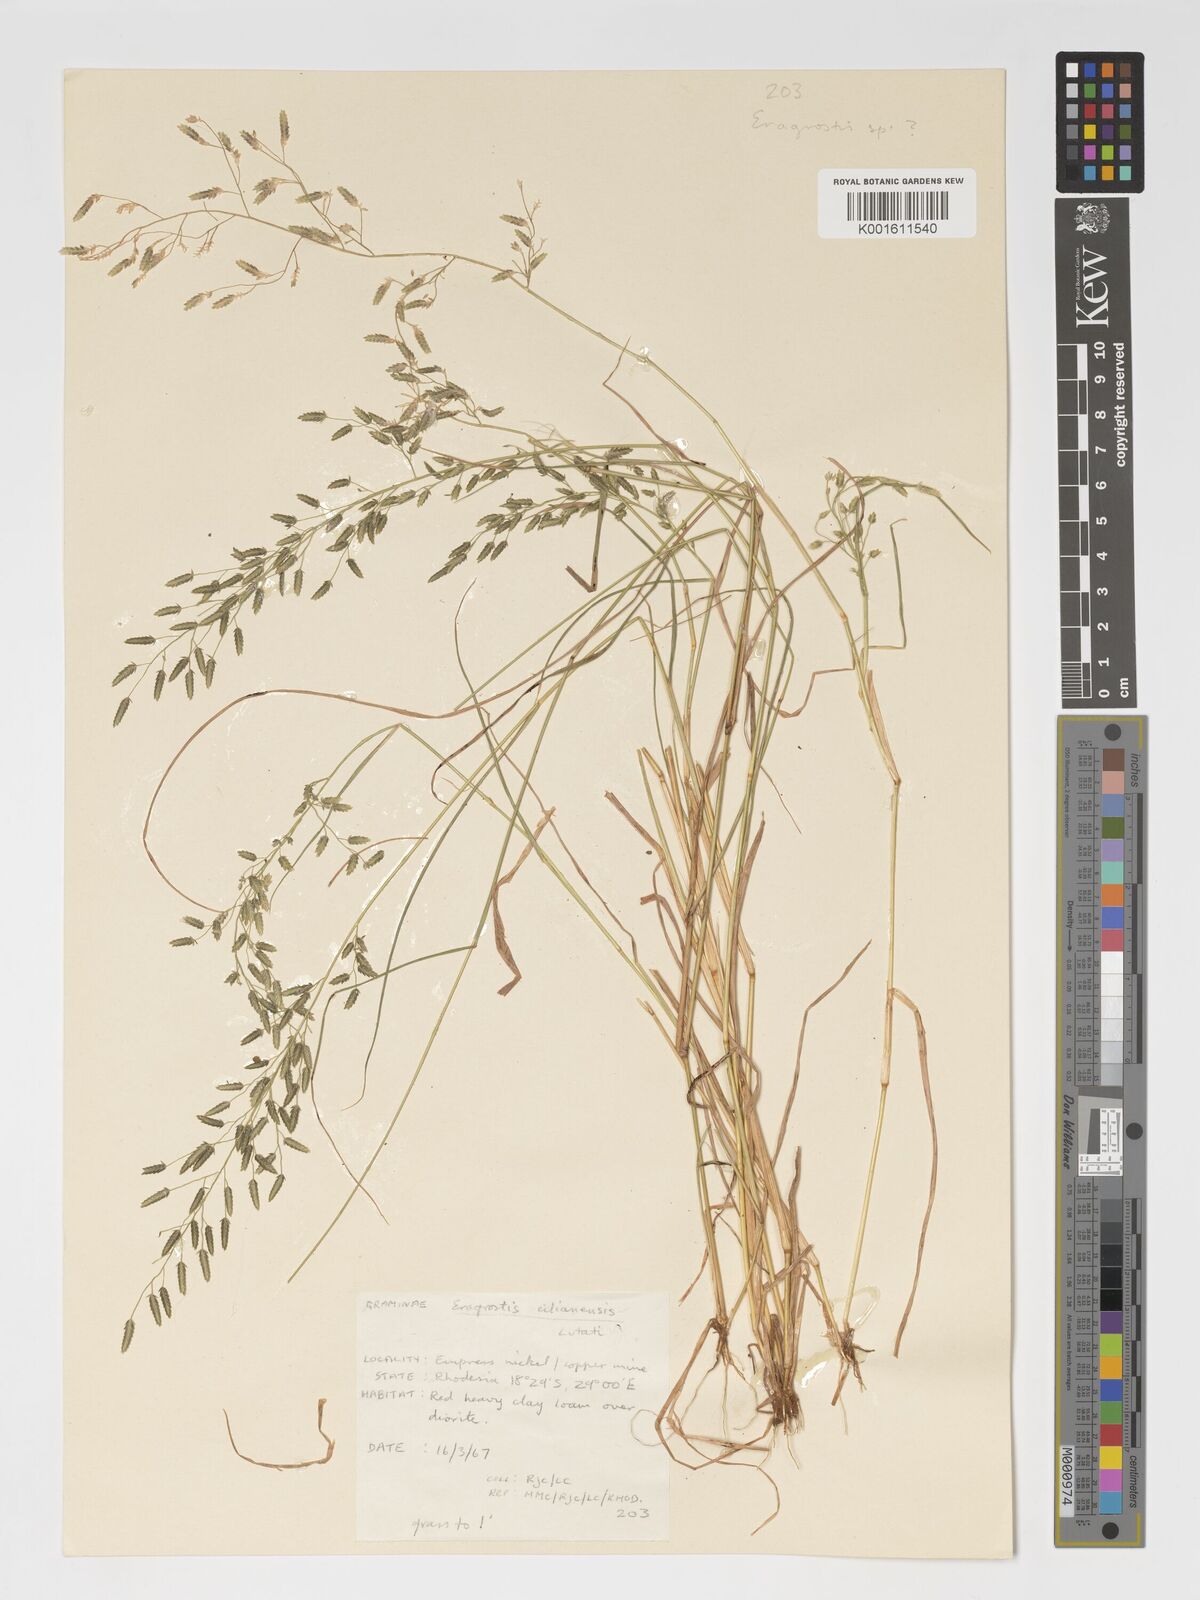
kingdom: Plantae
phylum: Tracheophyta
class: Liliopsida
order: Poales
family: Poaceae
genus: Eragrostis
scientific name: Eragrostis cilianensis
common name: Stinkgrass
